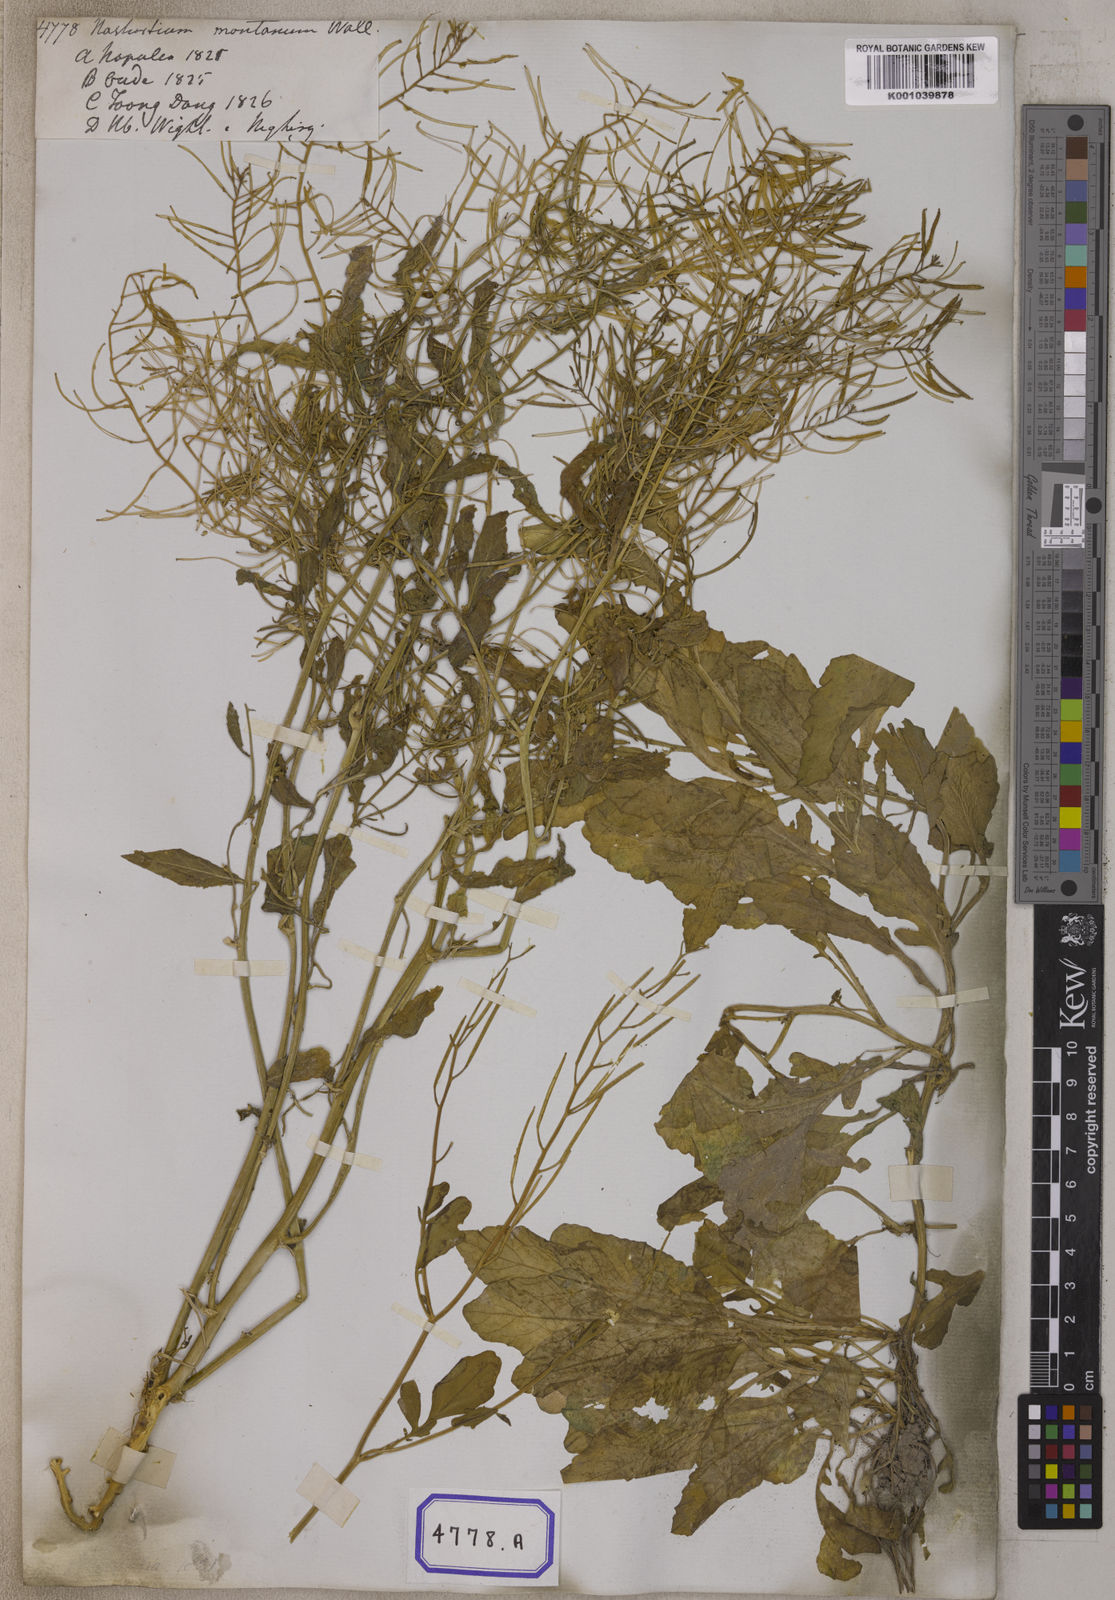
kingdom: Plantae
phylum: Tracheophyta
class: Magnoliopsida
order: Brassicales
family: Brassicaceae
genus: Nasturtium
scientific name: Nasturtium
